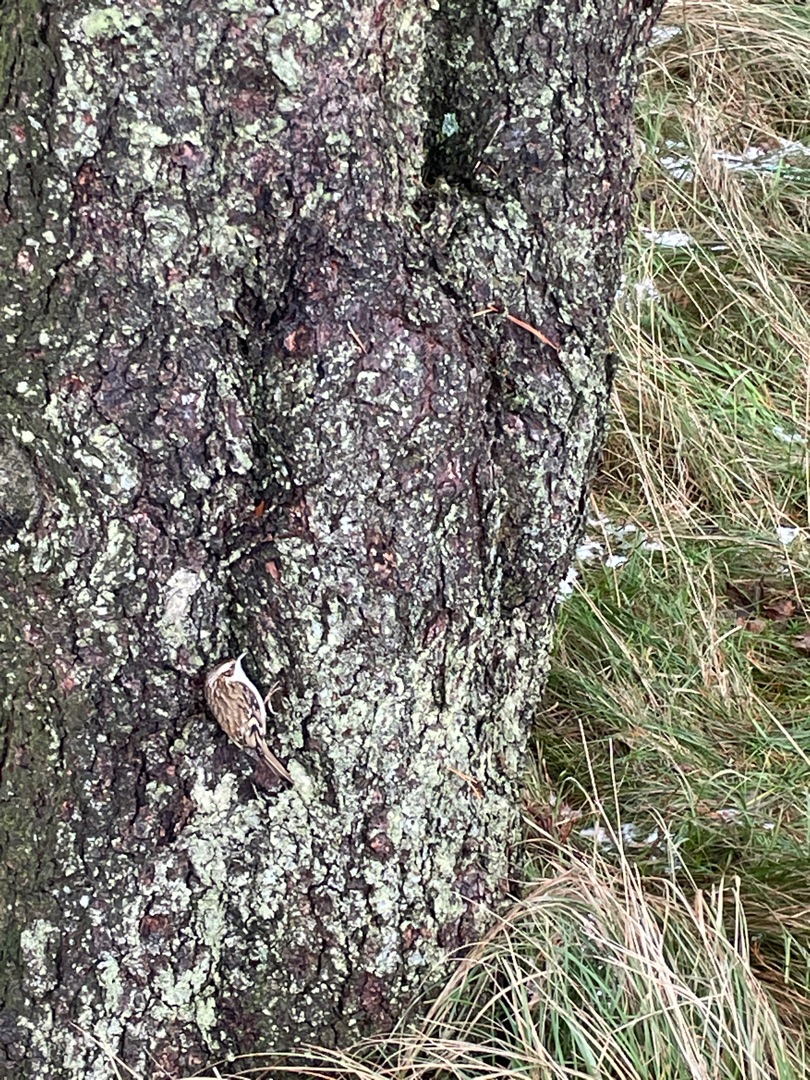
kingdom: Animalia
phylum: Chordata
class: Aves
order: Passeriformes
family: Certhiidae
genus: Certhia
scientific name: Certhia familiaris
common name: Træløber
